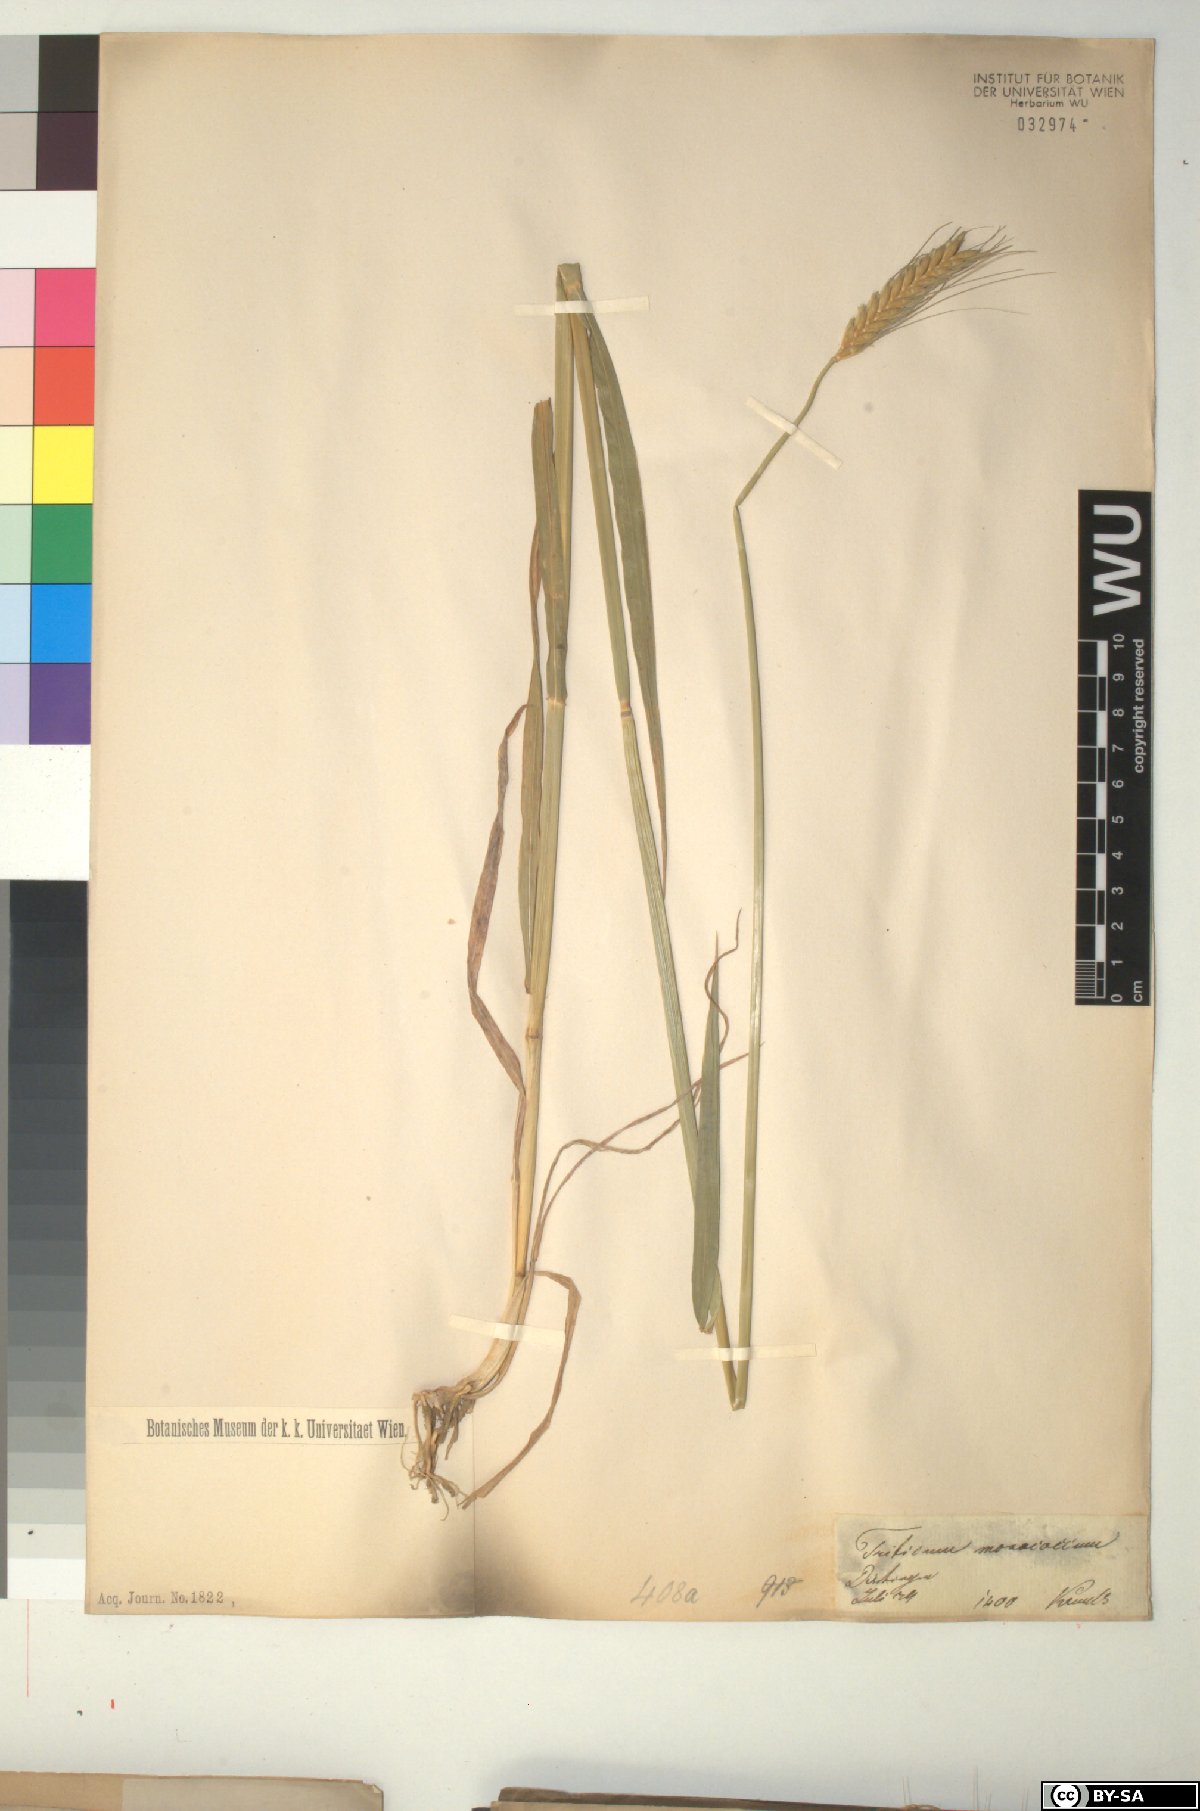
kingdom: Plantae
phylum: Tracheophyta
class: Liliopsida
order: Poales
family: Poaceae
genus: Triticum
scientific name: Triticum monococcum
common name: Einkorn
